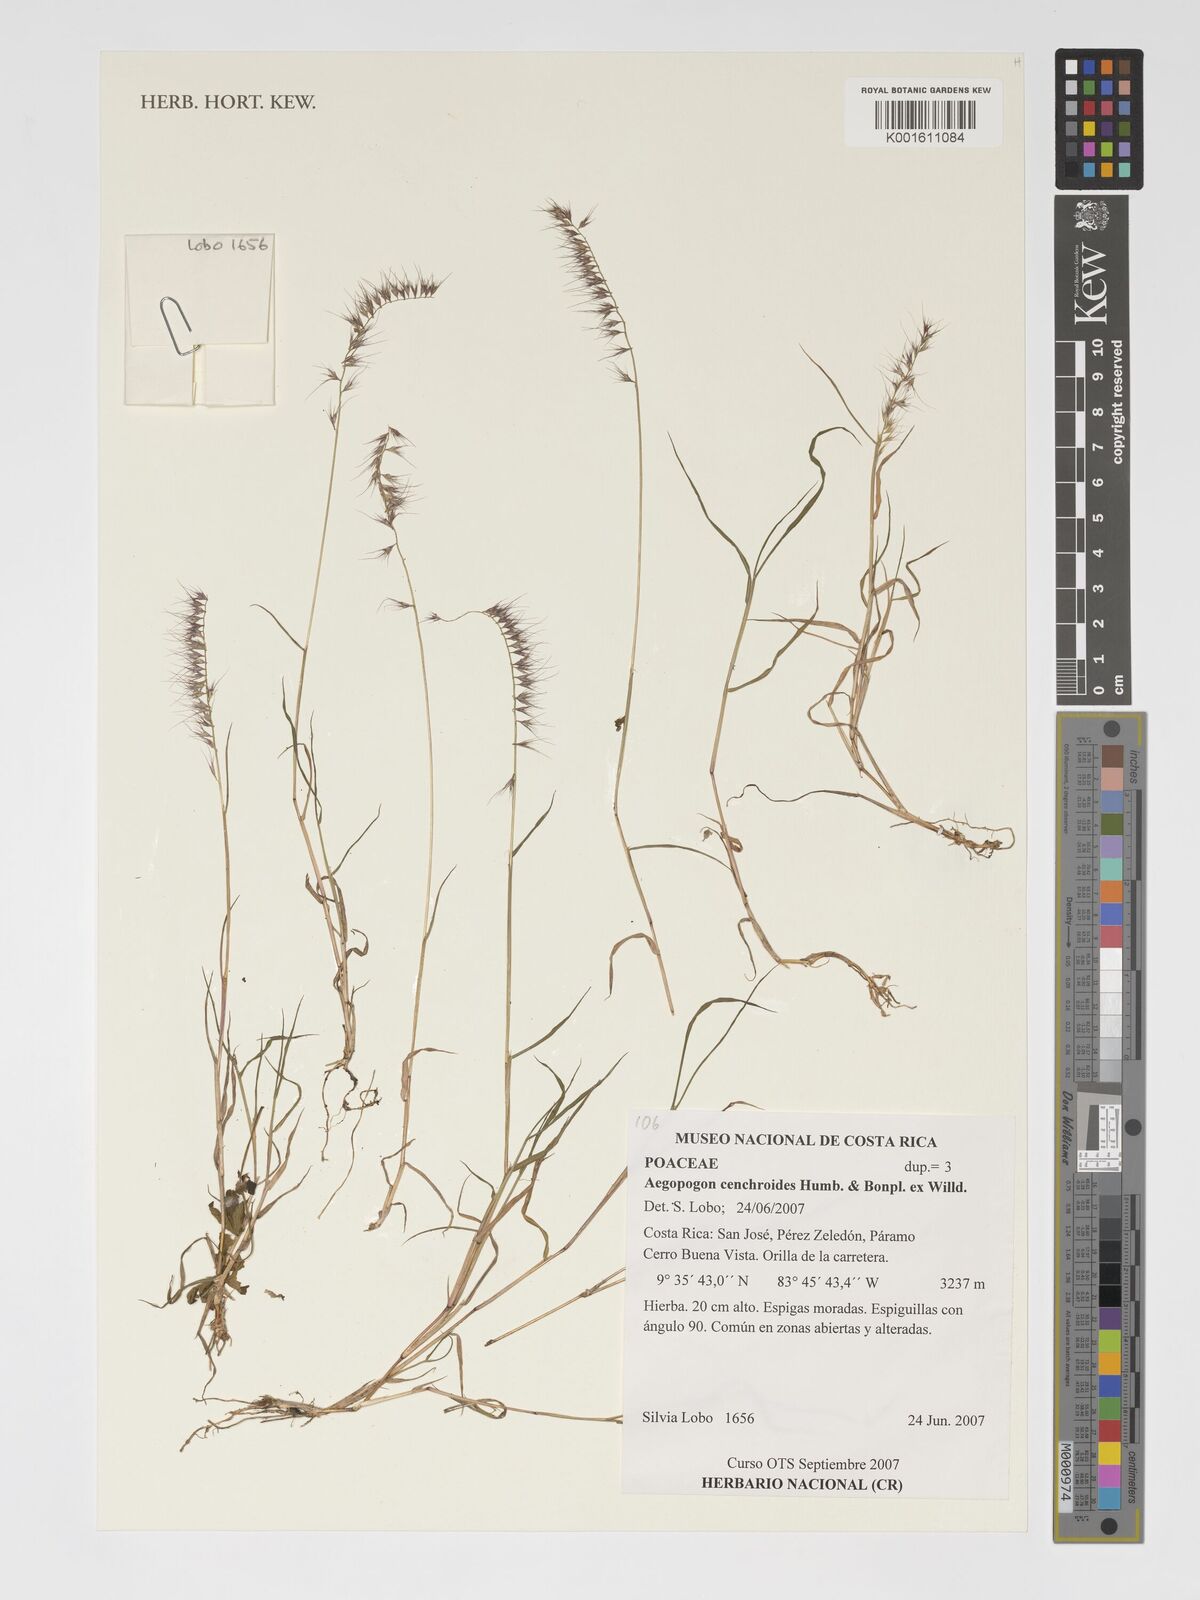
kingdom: Plantae
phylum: Tracheophyta
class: Liliopsida
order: Poales
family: Poaceae
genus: Muhlenbergia
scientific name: Muhlenbergia cenchroides
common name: Relaxgrass
